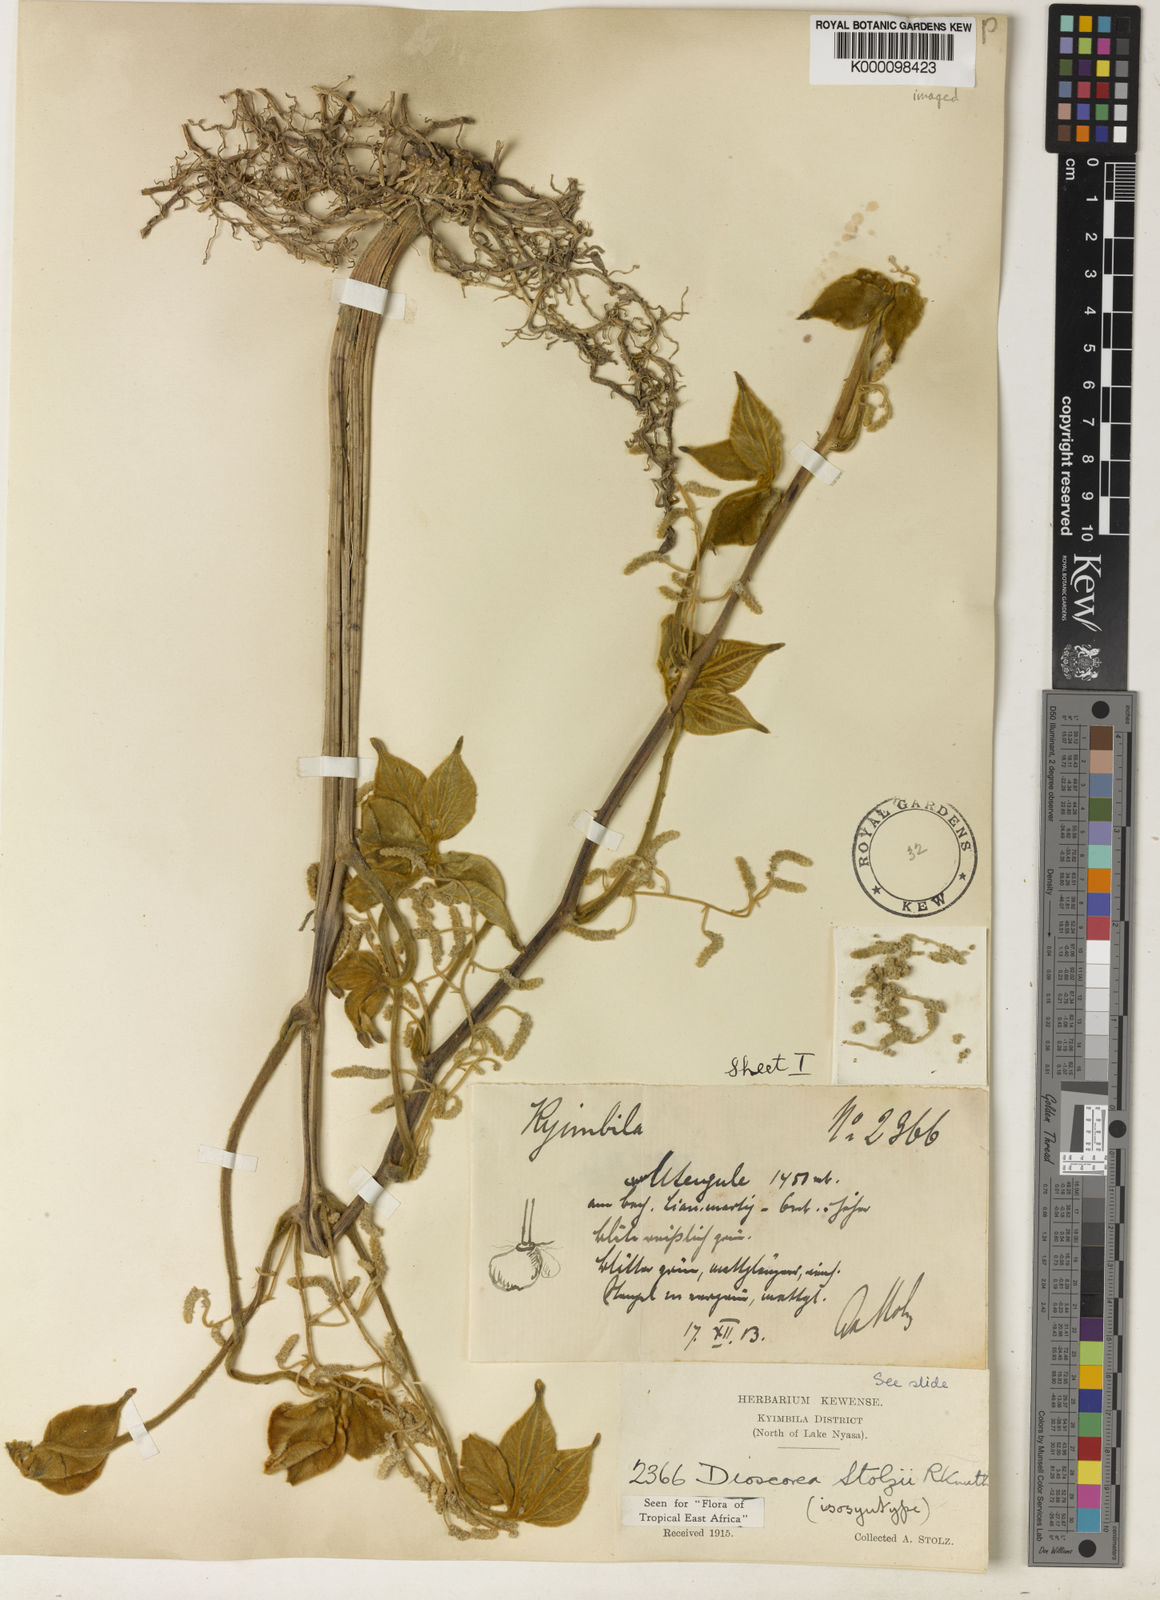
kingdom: Plantae
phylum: Tracheophyta
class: Liliopsida
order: Dioscoreales
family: Dioscoreaceae
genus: Dioscorea
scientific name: Dioscorea cochleariapiculata
